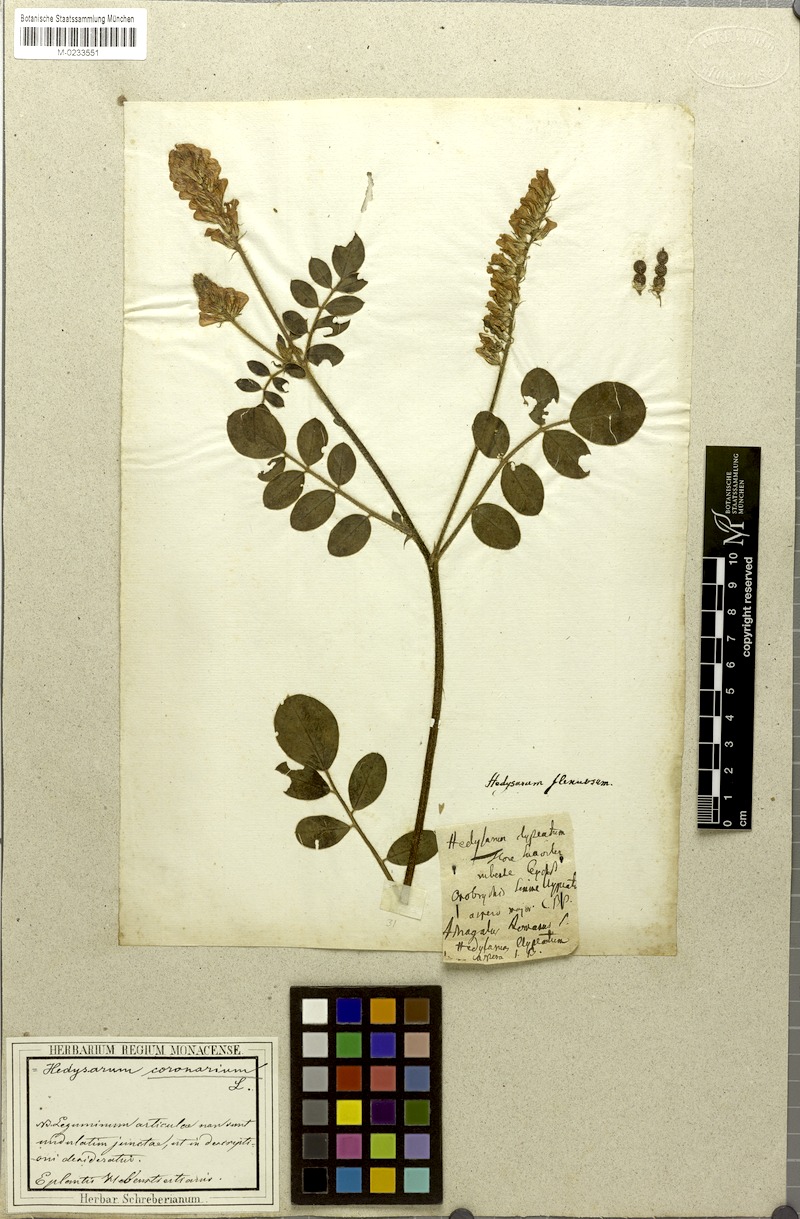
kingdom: Plantae
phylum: Tracheophyta
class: Magnoliopsida
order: Fabales
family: Fabaceae
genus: Sulla
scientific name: Sulla flexuosa
